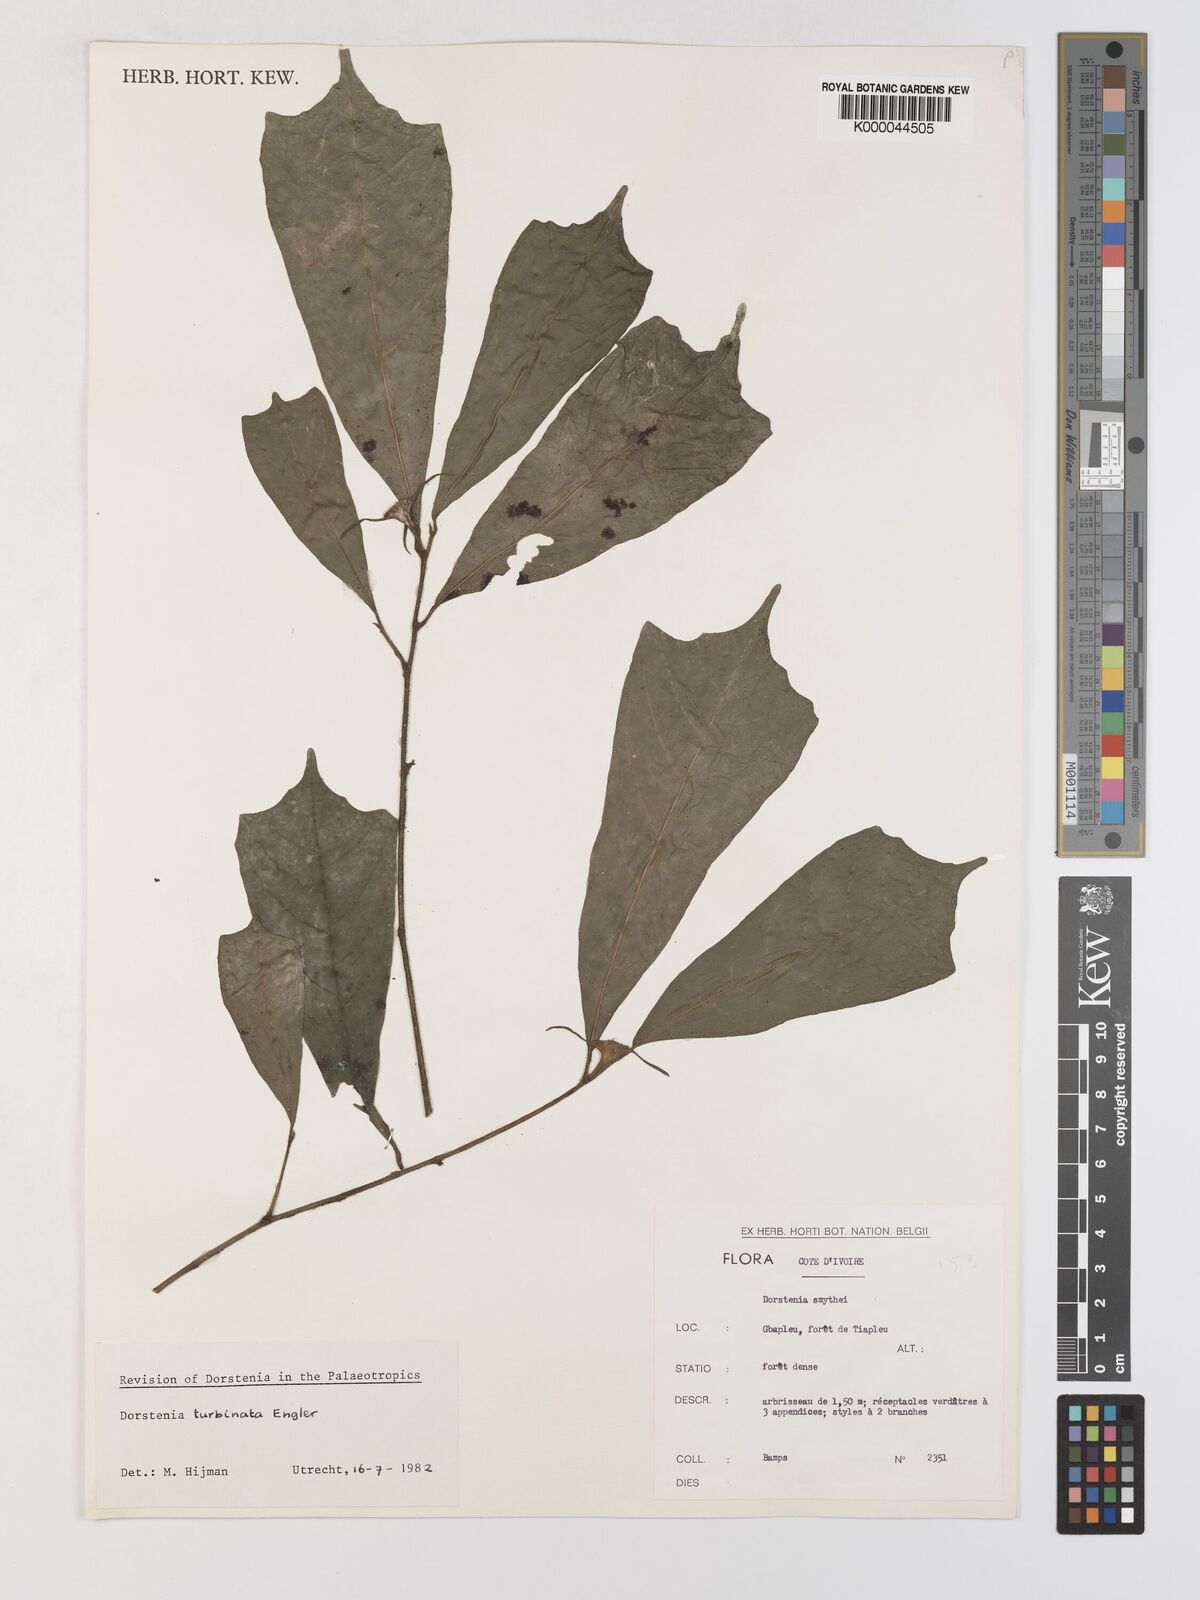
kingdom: Plantae
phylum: Tracheophyta
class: Magnoliopsida
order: Rosales
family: Moraceae
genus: Hijmania
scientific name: Hijmania turbinata
